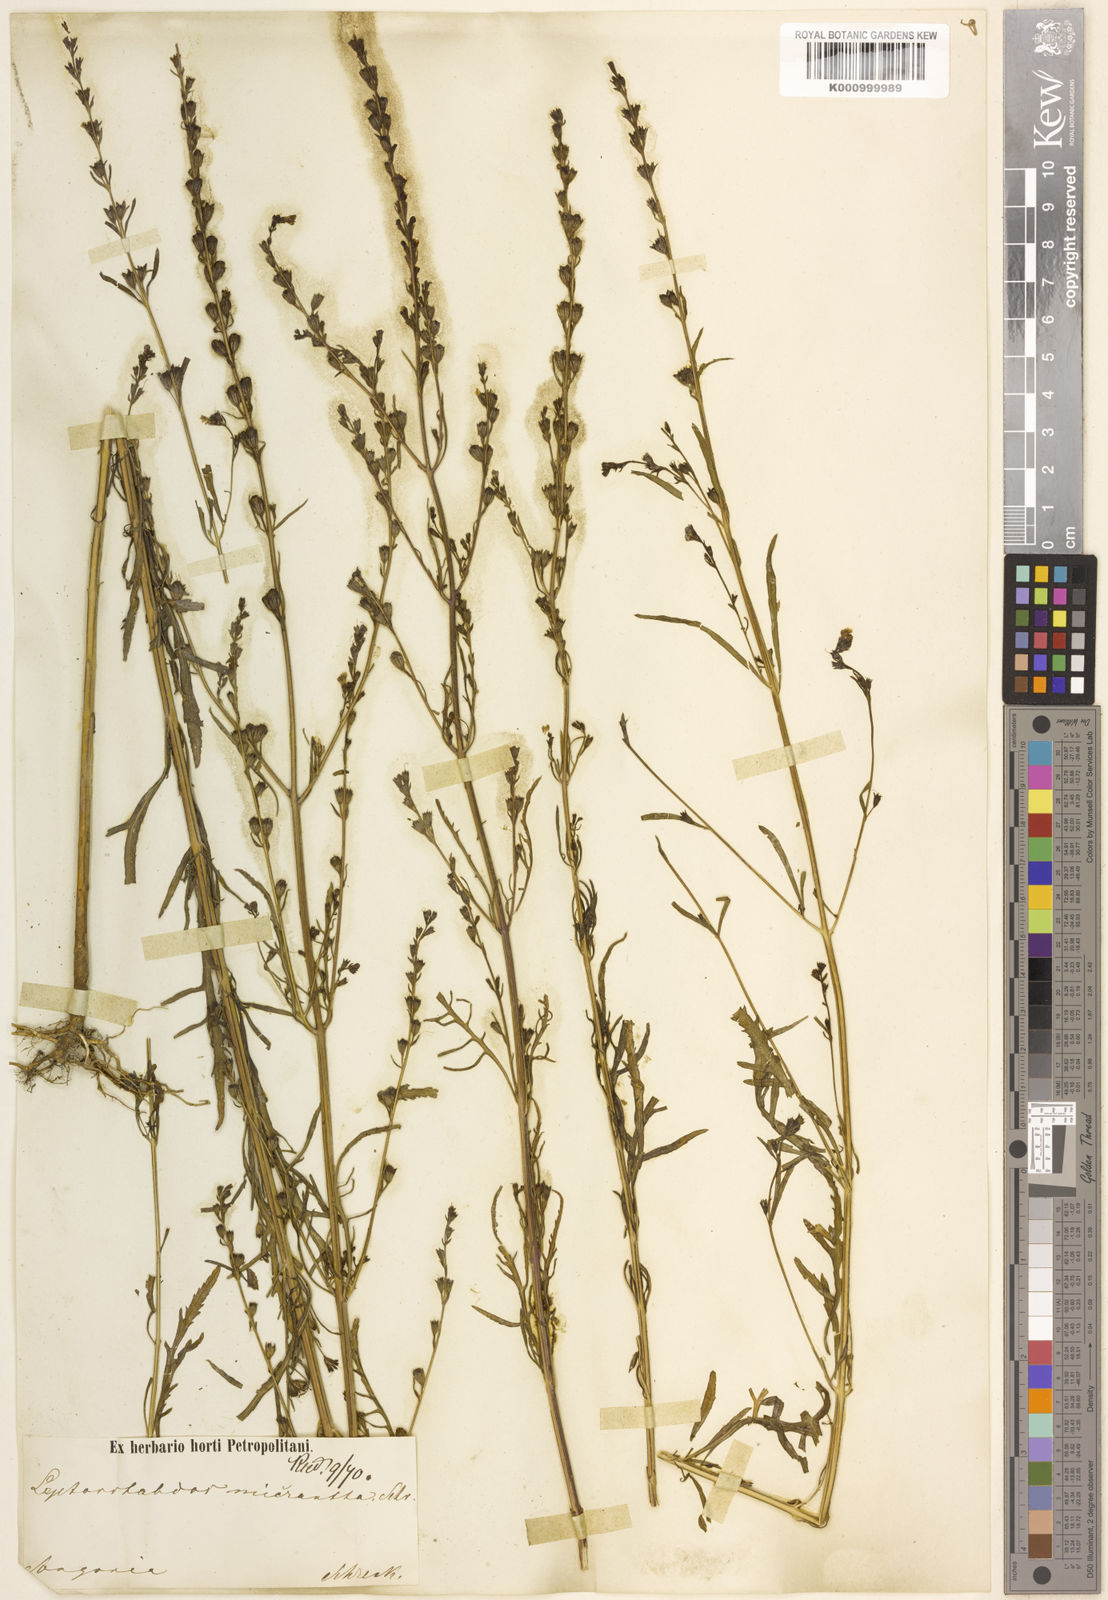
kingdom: Plantae
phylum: Tracheophyta
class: Magnoliopsida
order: Lamiales
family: Orobanchaceae
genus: Leptorhabdos
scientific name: Leptorhabdos parviflora
